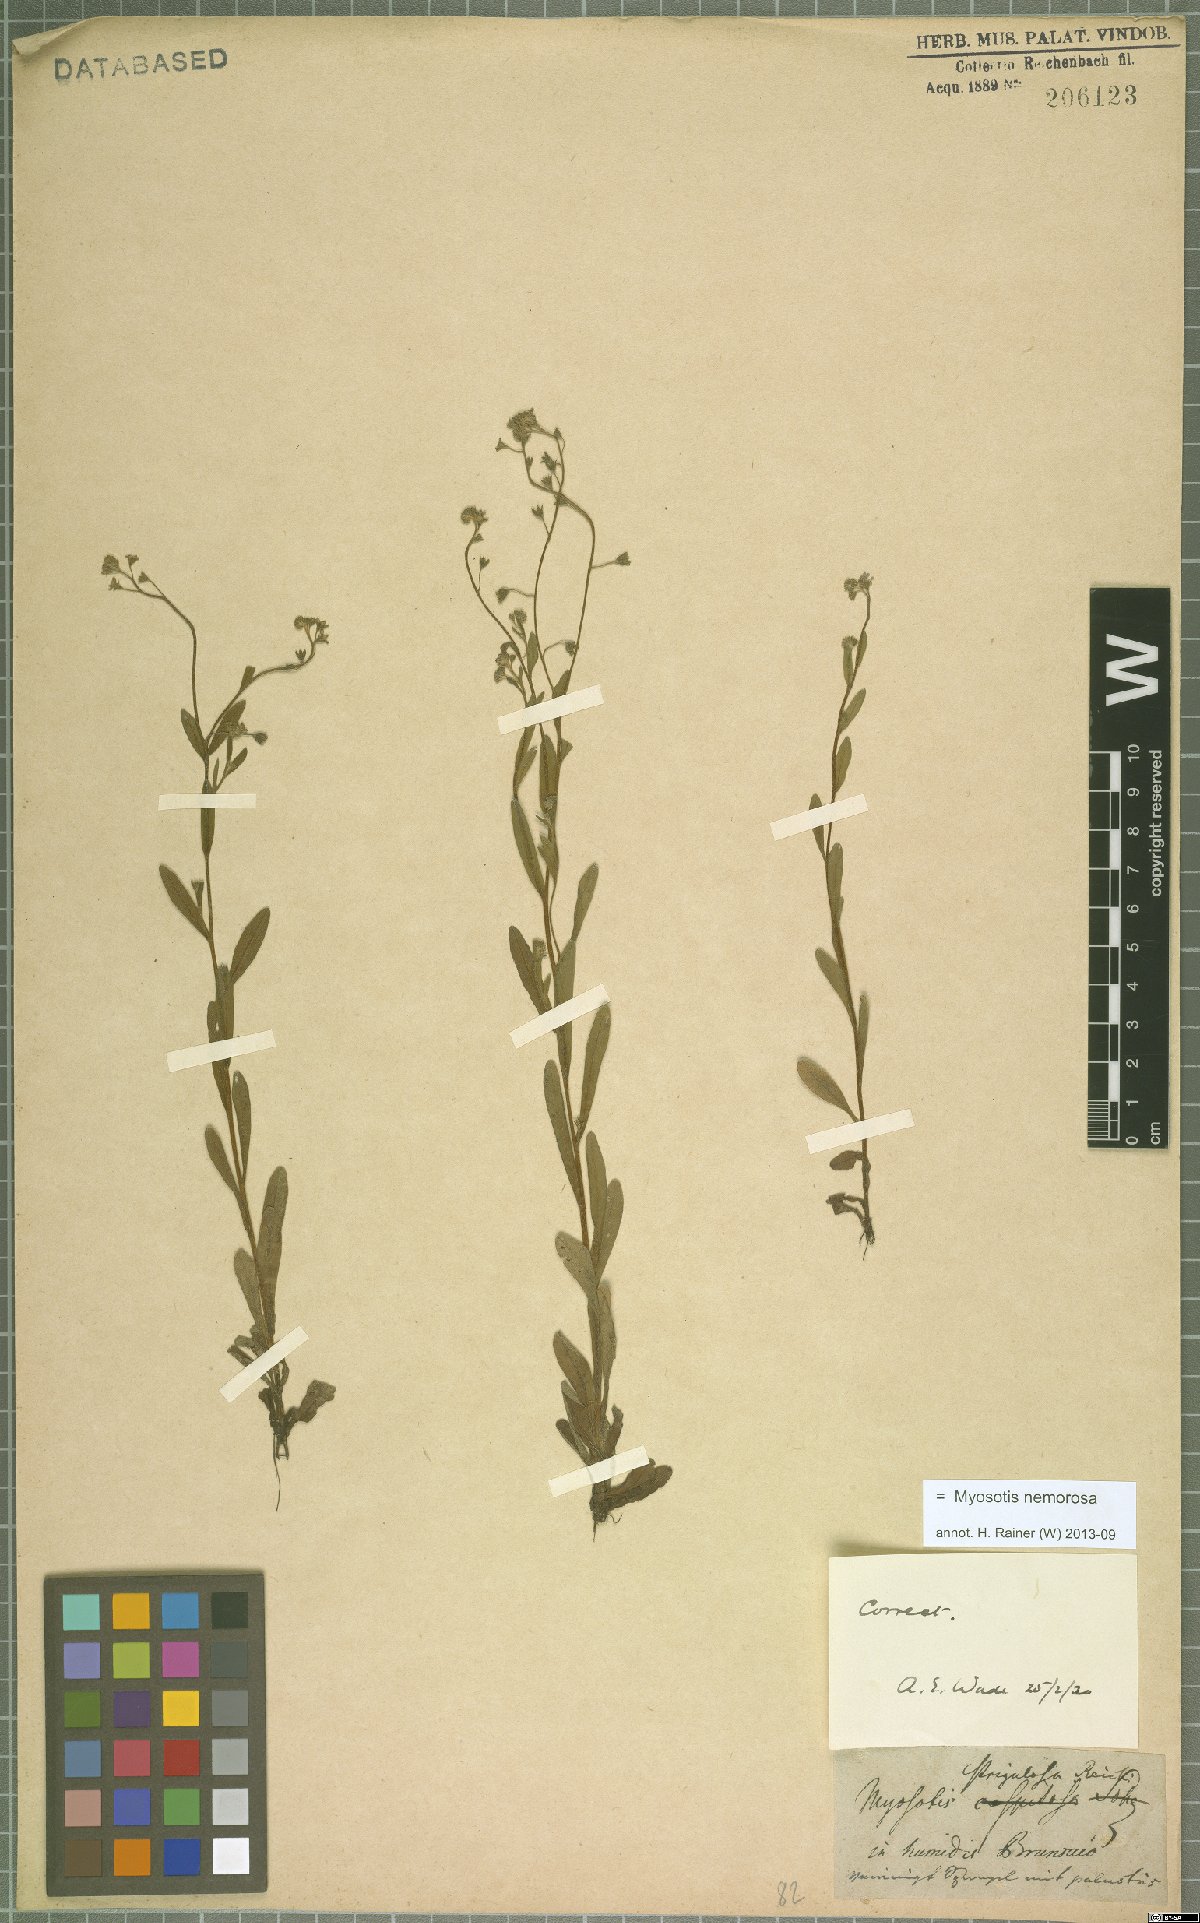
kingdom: Plantae
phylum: Tracheophyta
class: Magnoliopsida
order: Boraginales
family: Boraginaceae
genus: Myosotis
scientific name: Myosotis nemorosa
